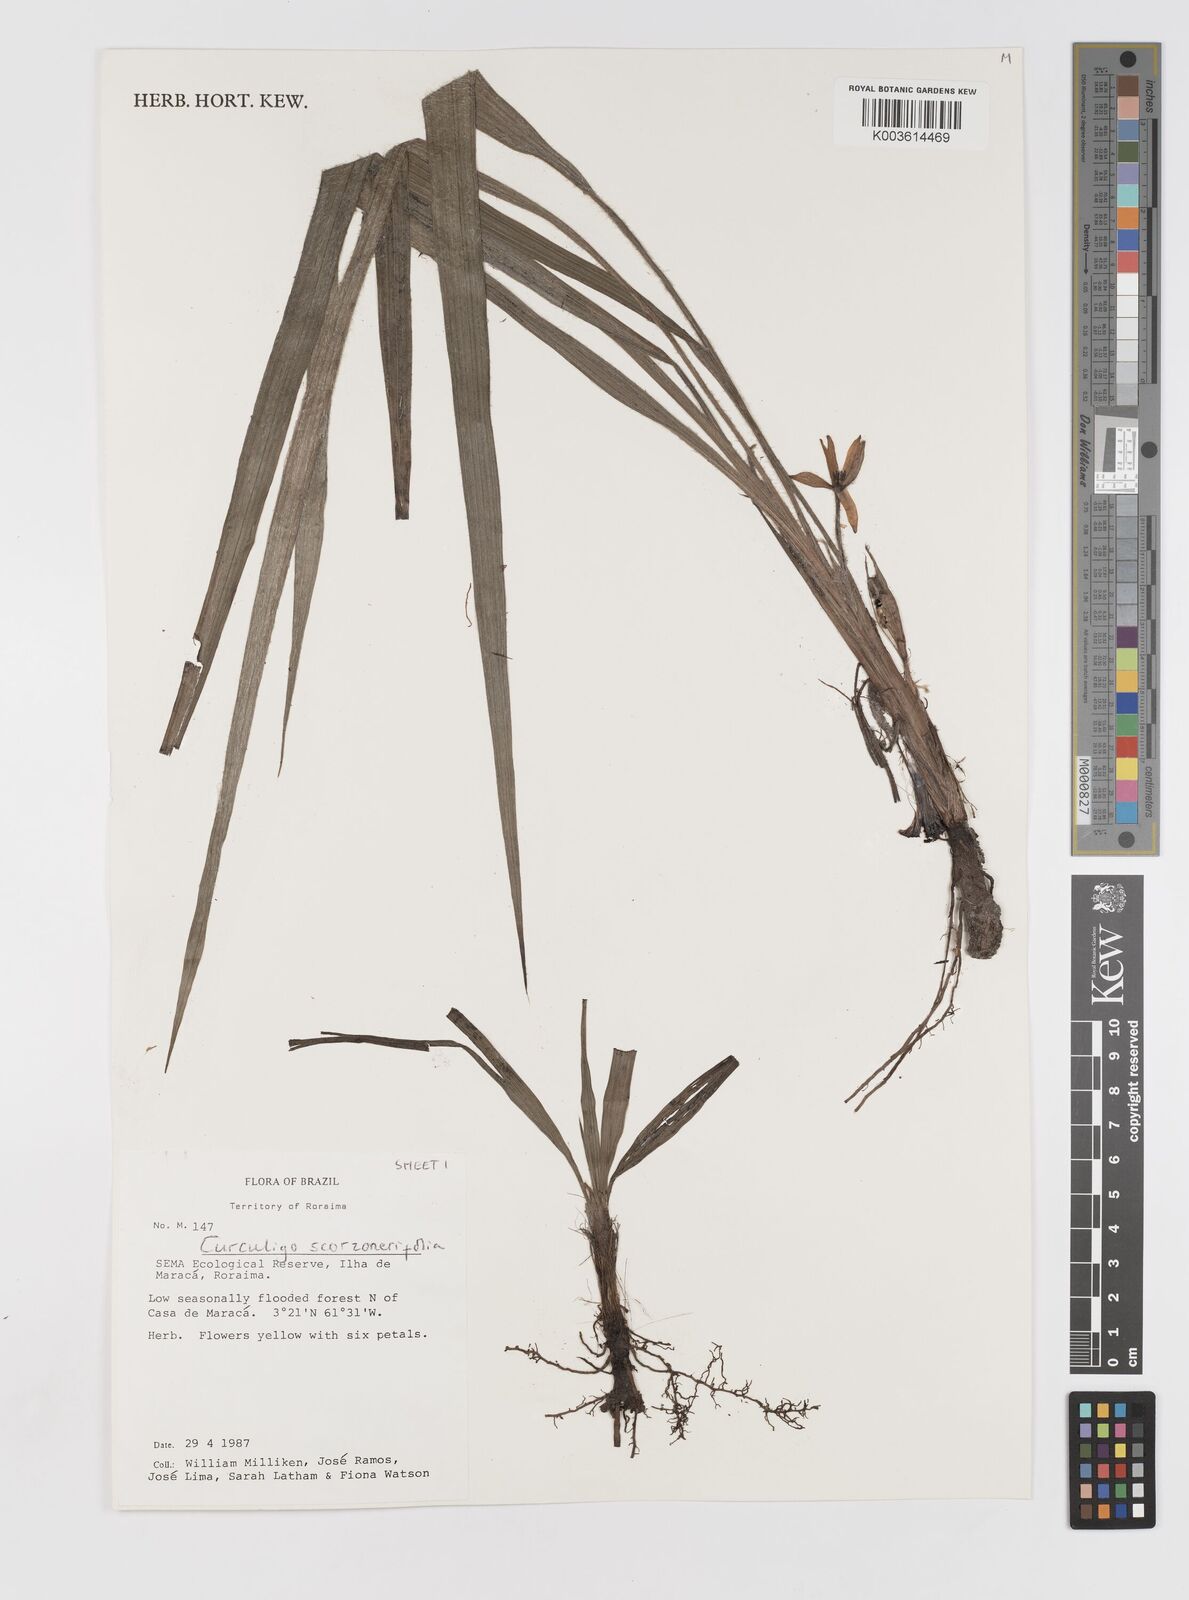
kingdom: Plantae
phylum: Tracheophyta
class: Liliopsida
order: Asparagales
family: Hypoxidaceae
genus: Curculigo
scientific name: Curculigo scorzonerifolia
